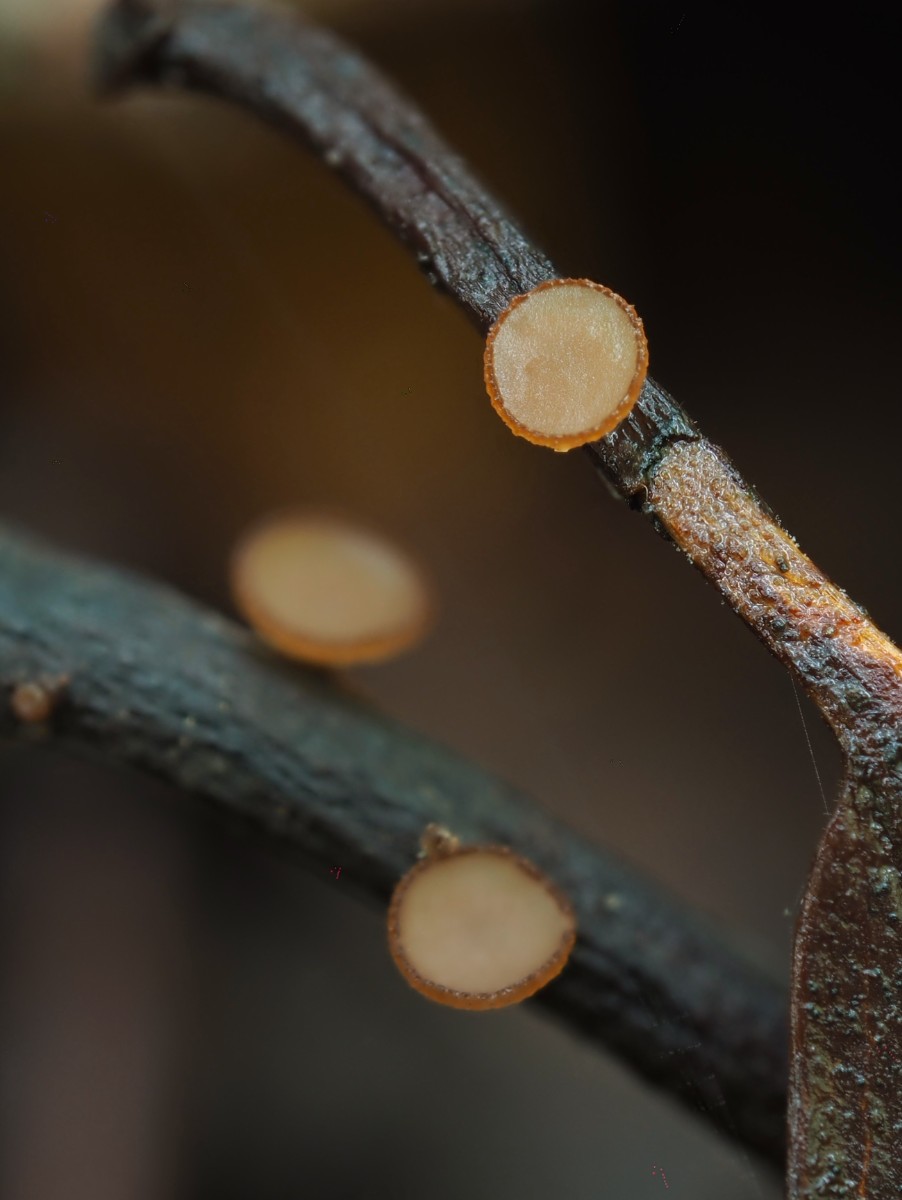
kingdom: Fungi
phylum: Ascomycota
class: Leotiomycetes
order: Helotiales
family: Rutstroemiaceae
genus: Rutstroemia
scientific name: Rutstroemia petiolorum
